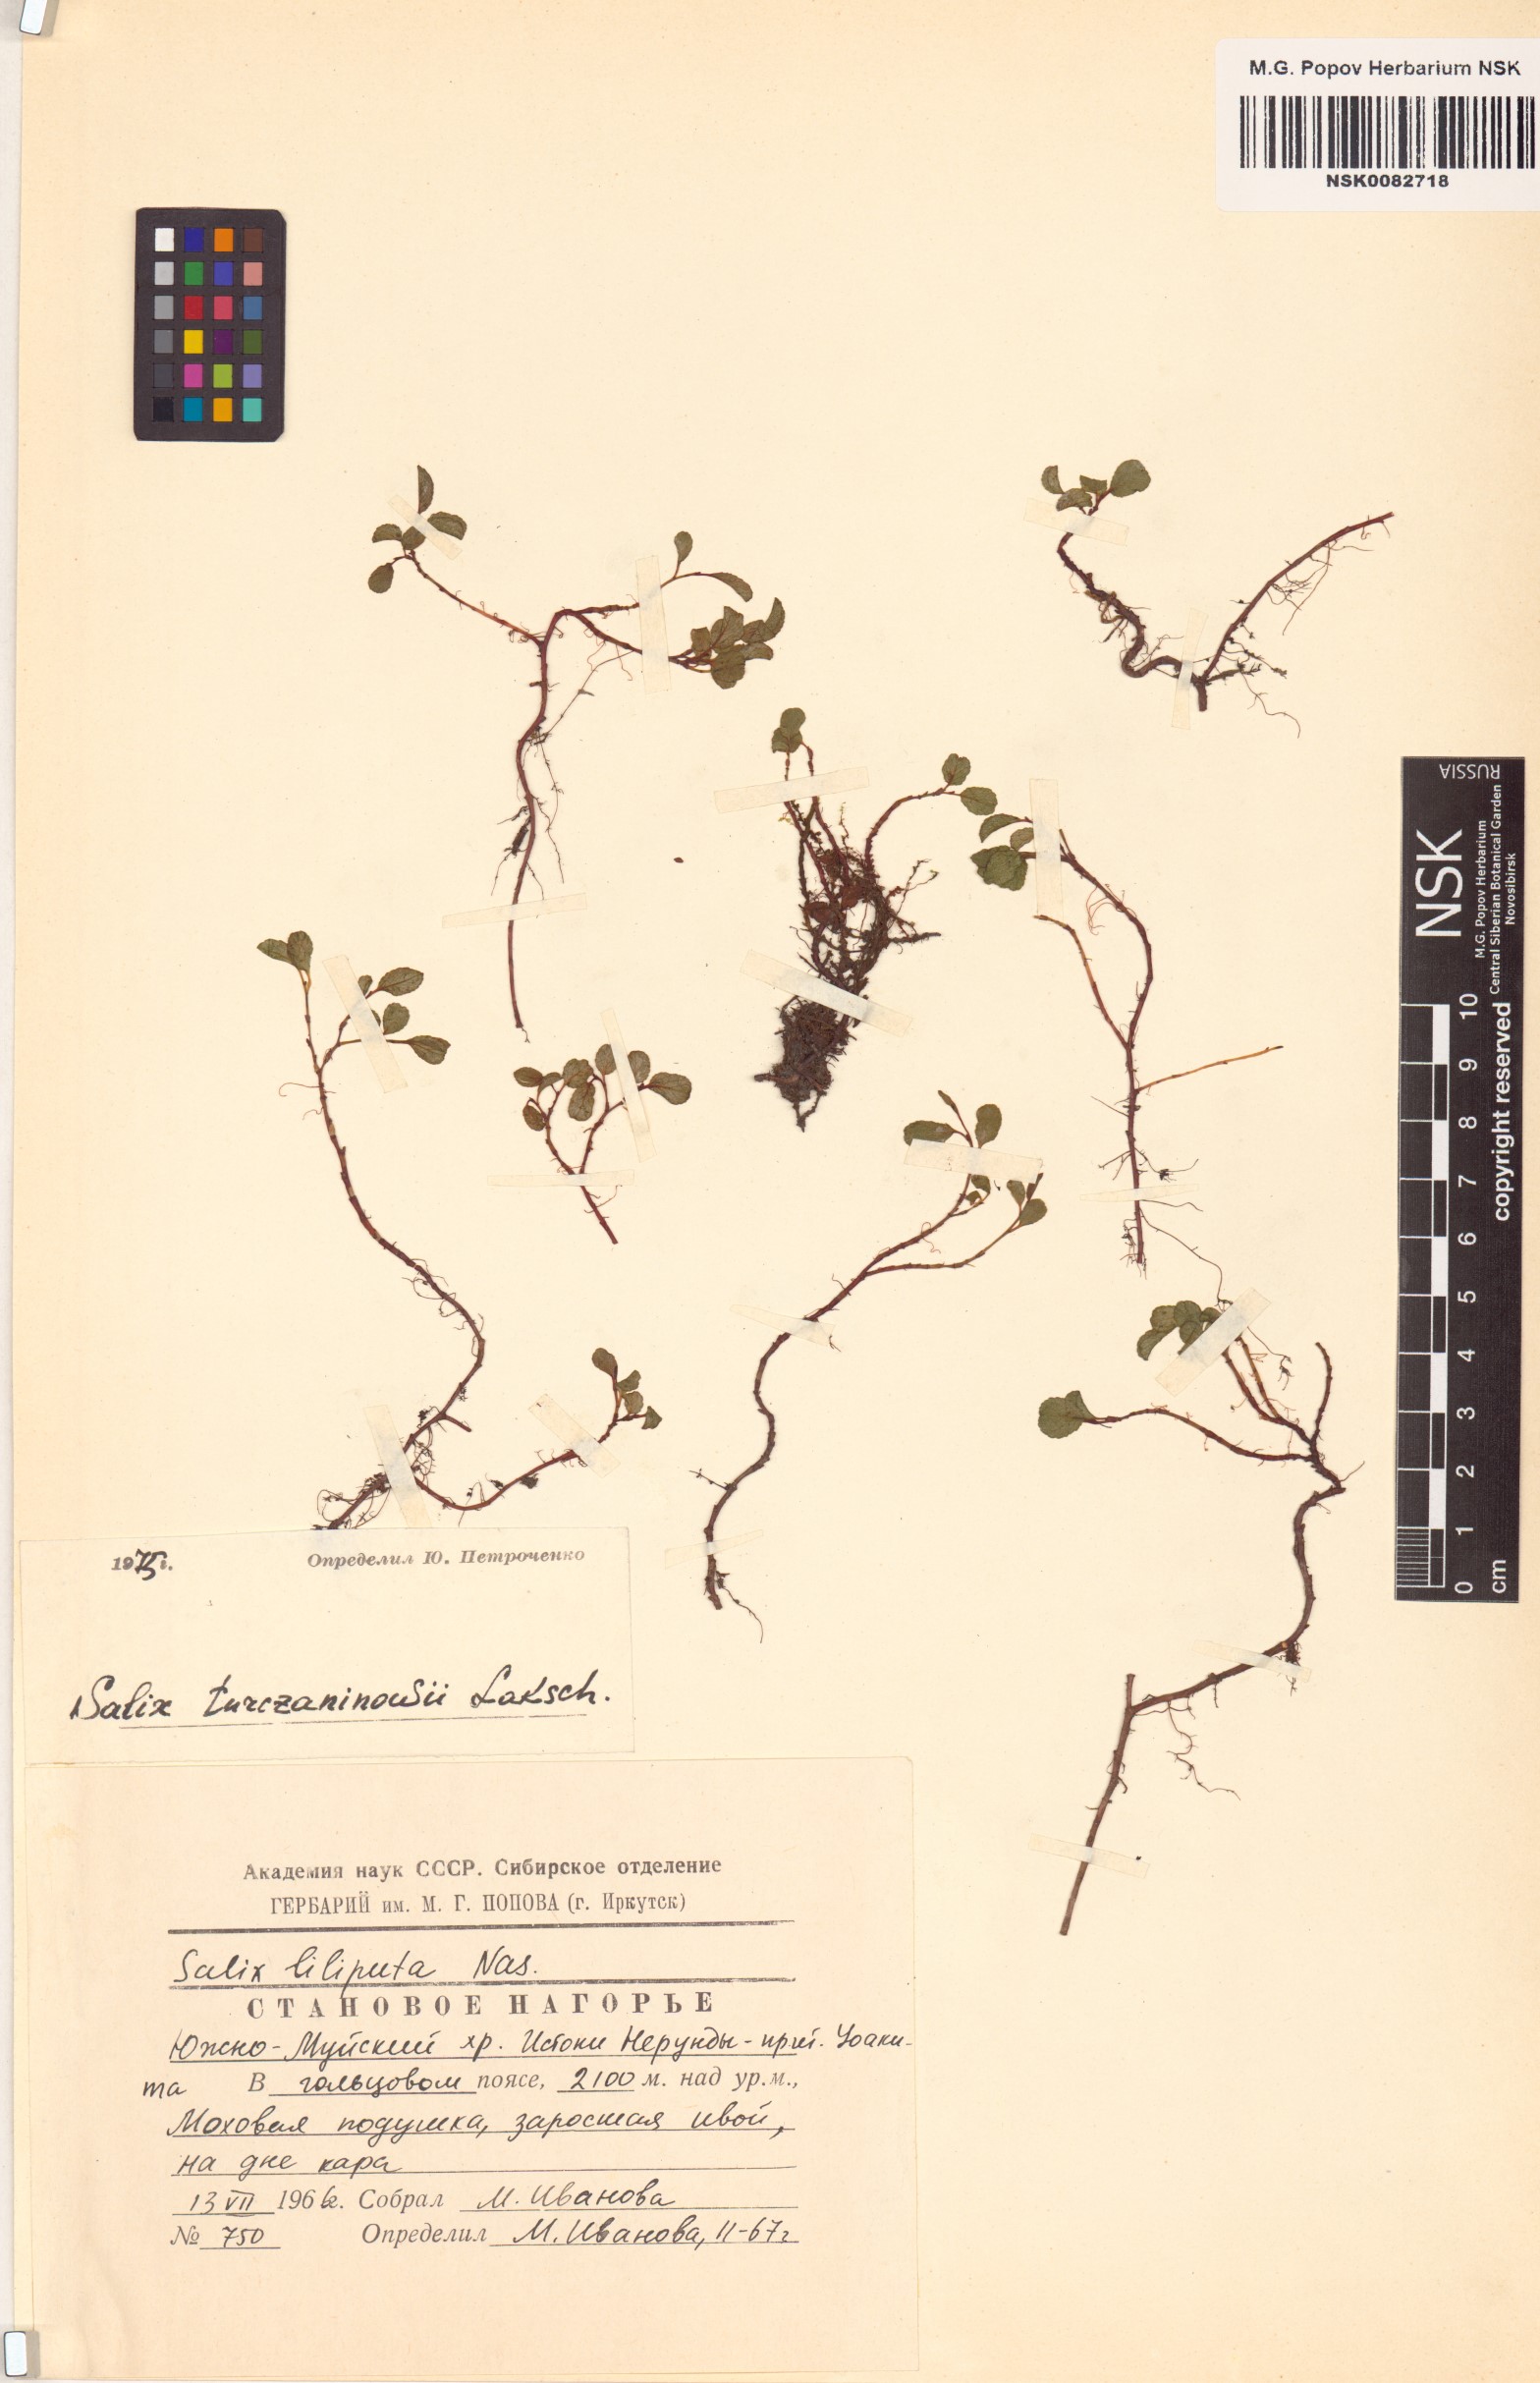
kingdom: Plantae
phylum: Tracheophyta
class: Magnoliopsida
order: Malpighiales
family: Salicaceae
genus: Salix
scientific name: Salix turczaninowii
